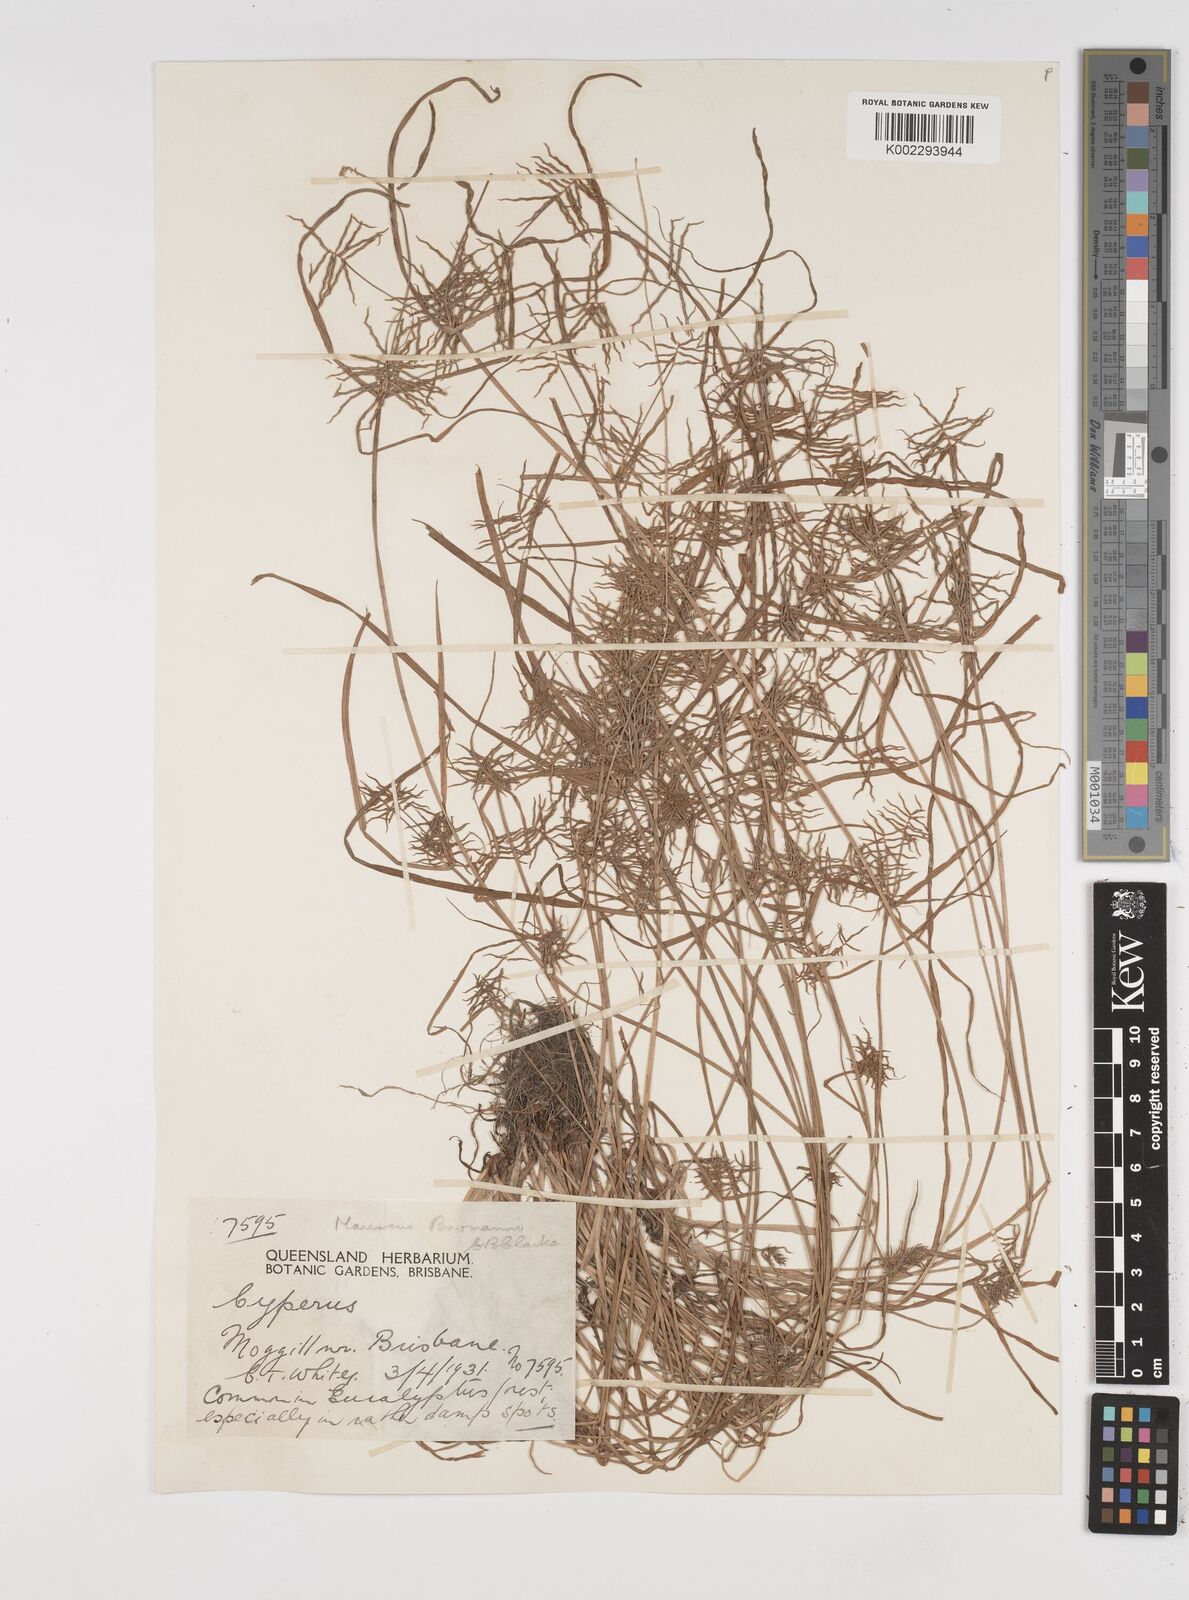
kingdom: Plantae
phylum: Tracheophyta
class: Liliopsida
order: Poales
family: Cyperaceae
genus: Cyperus
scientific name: Cyperus bowmanni
